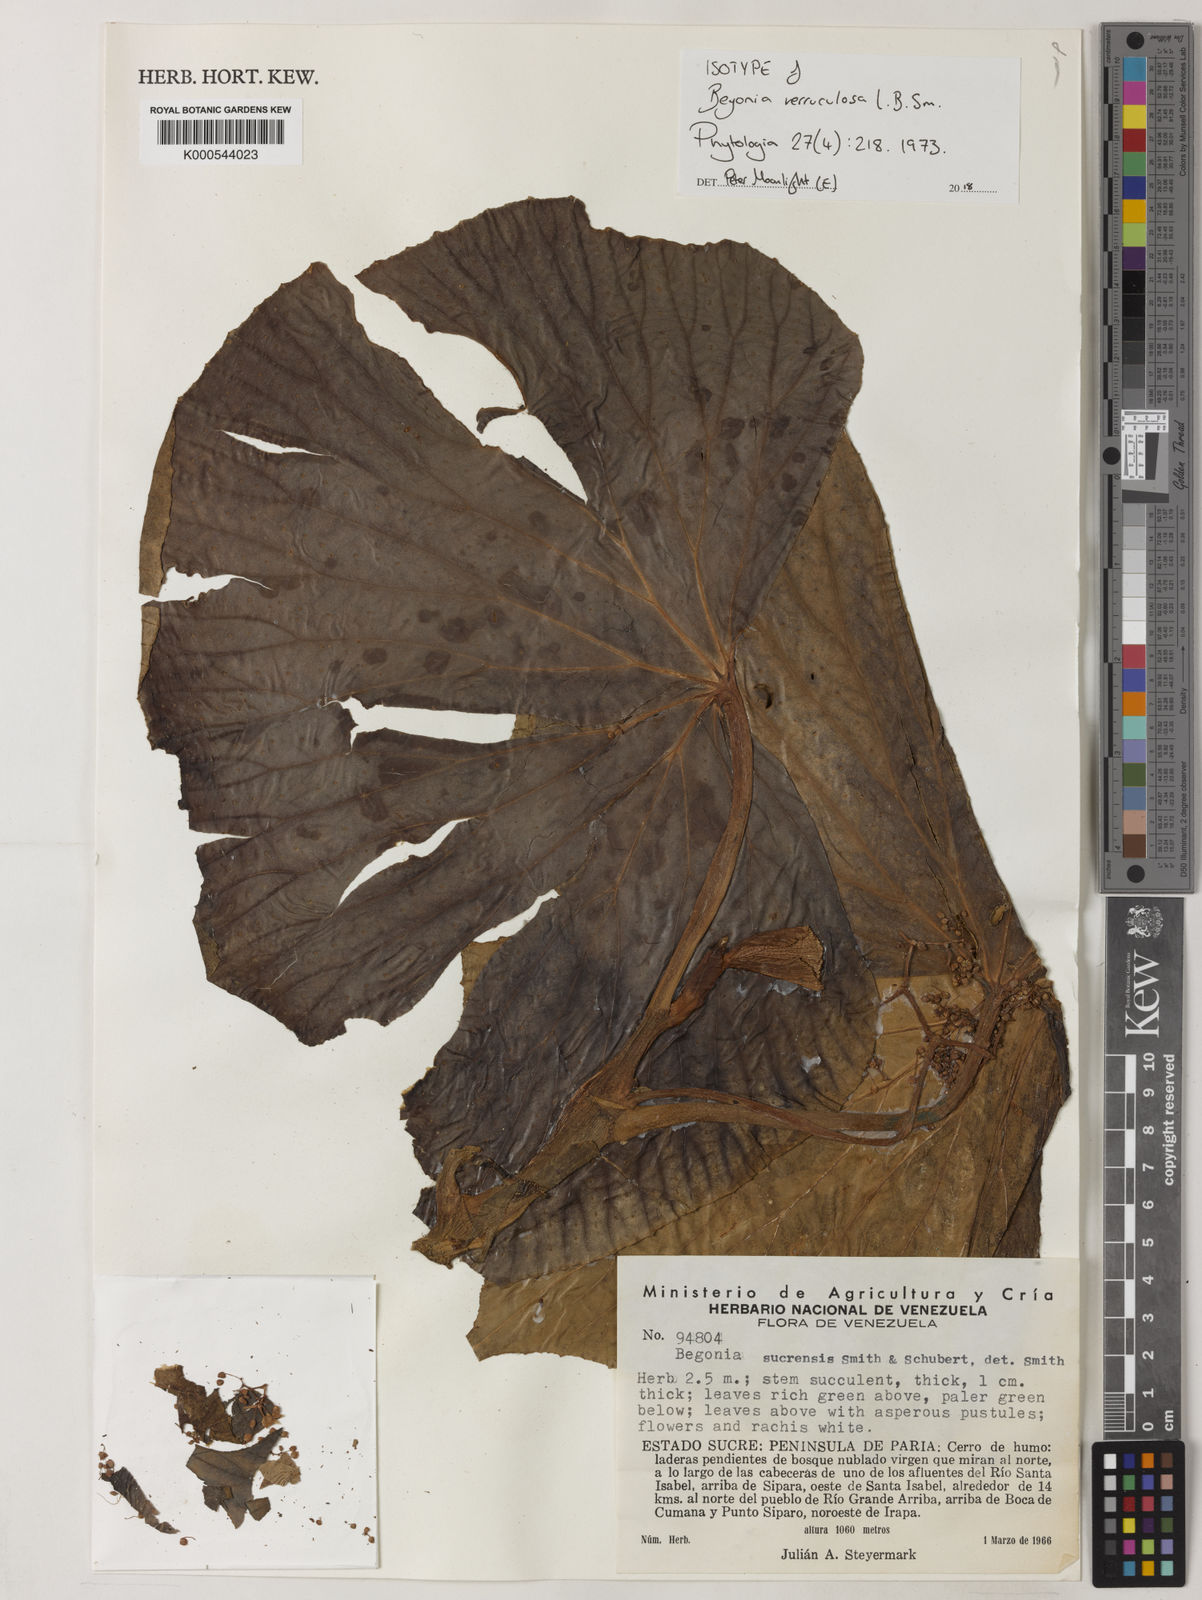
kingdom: Plantae
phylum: Tracheophyta
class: Magnoliopsida
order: Cucurbitales
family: Begoniaceae
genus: Begonia
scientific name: Begonia verruculosa
